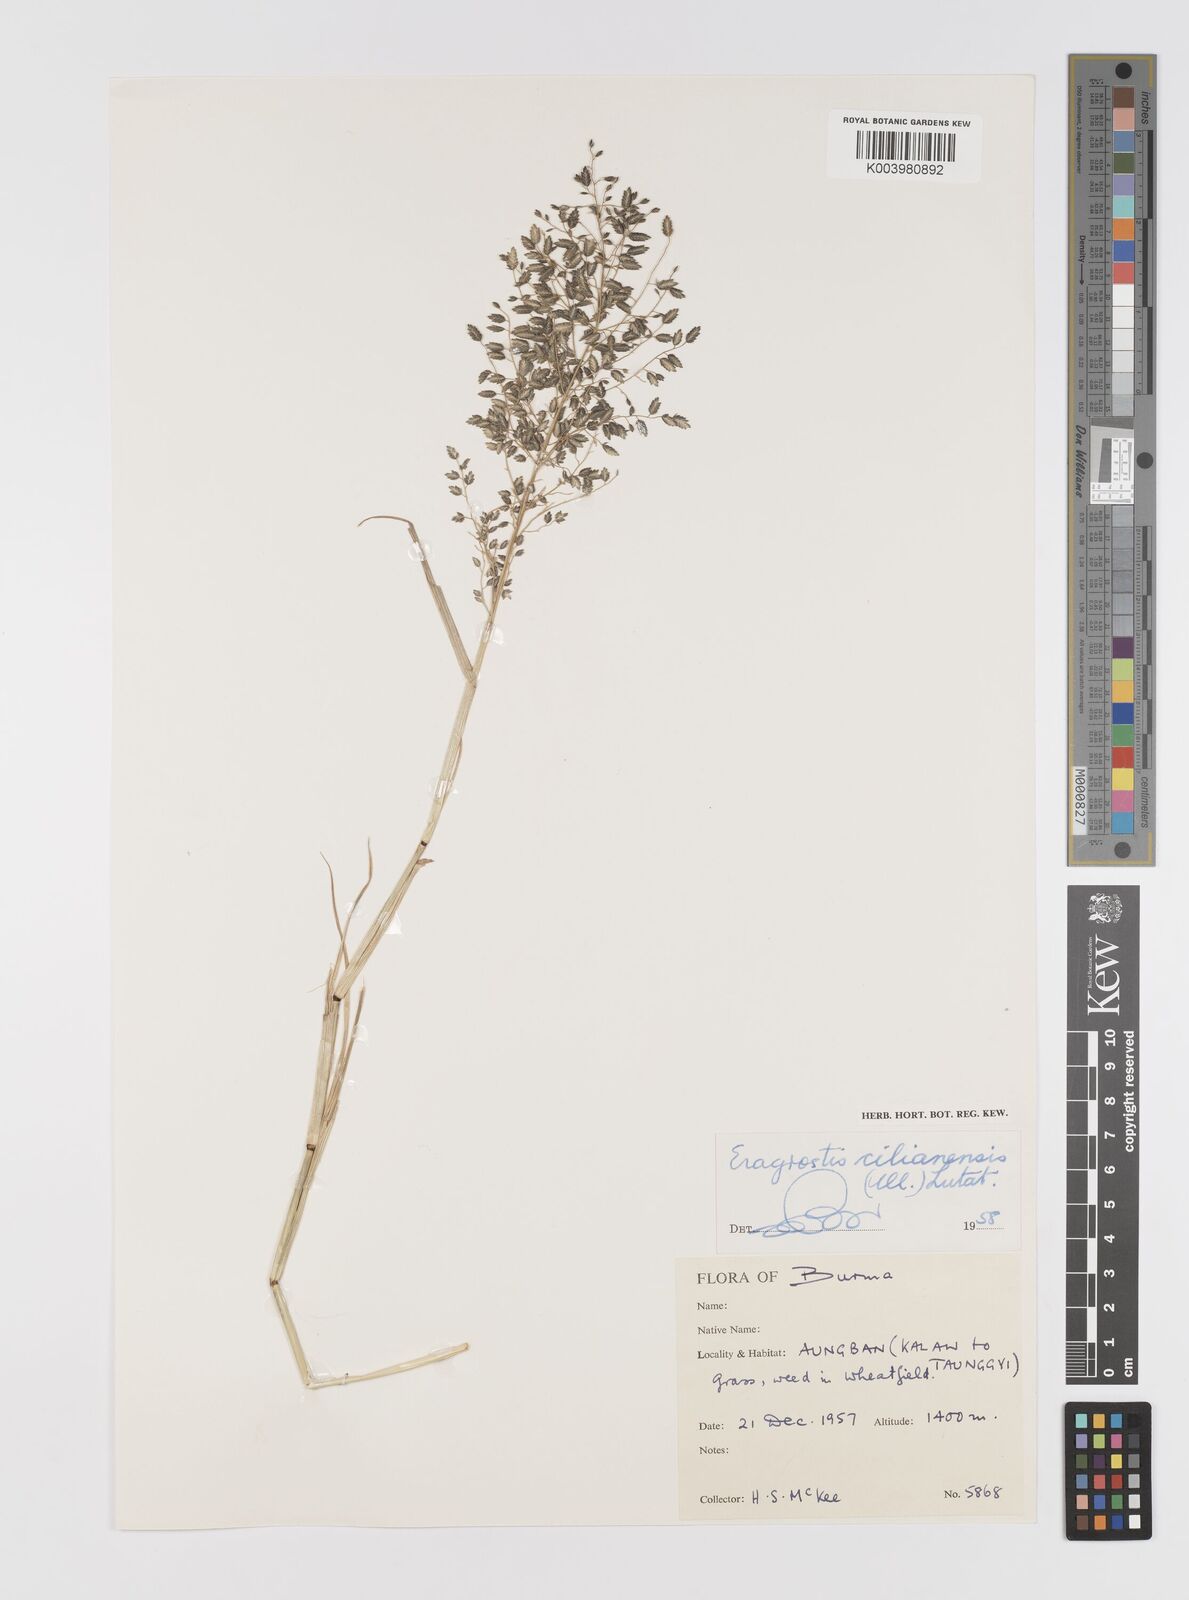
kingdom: Plantae
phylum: Tracheophyta
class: Liliopsida
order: Poales
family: Poaceae
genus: Eragrostis
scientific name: Eragrostis cilianensis
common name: Stinkgrass
